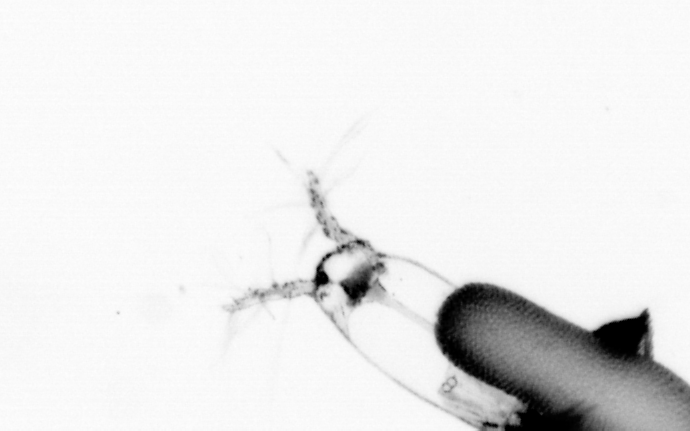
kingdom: Animalia
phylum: Arthropoda
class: Copepoda
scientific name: Copepoda
